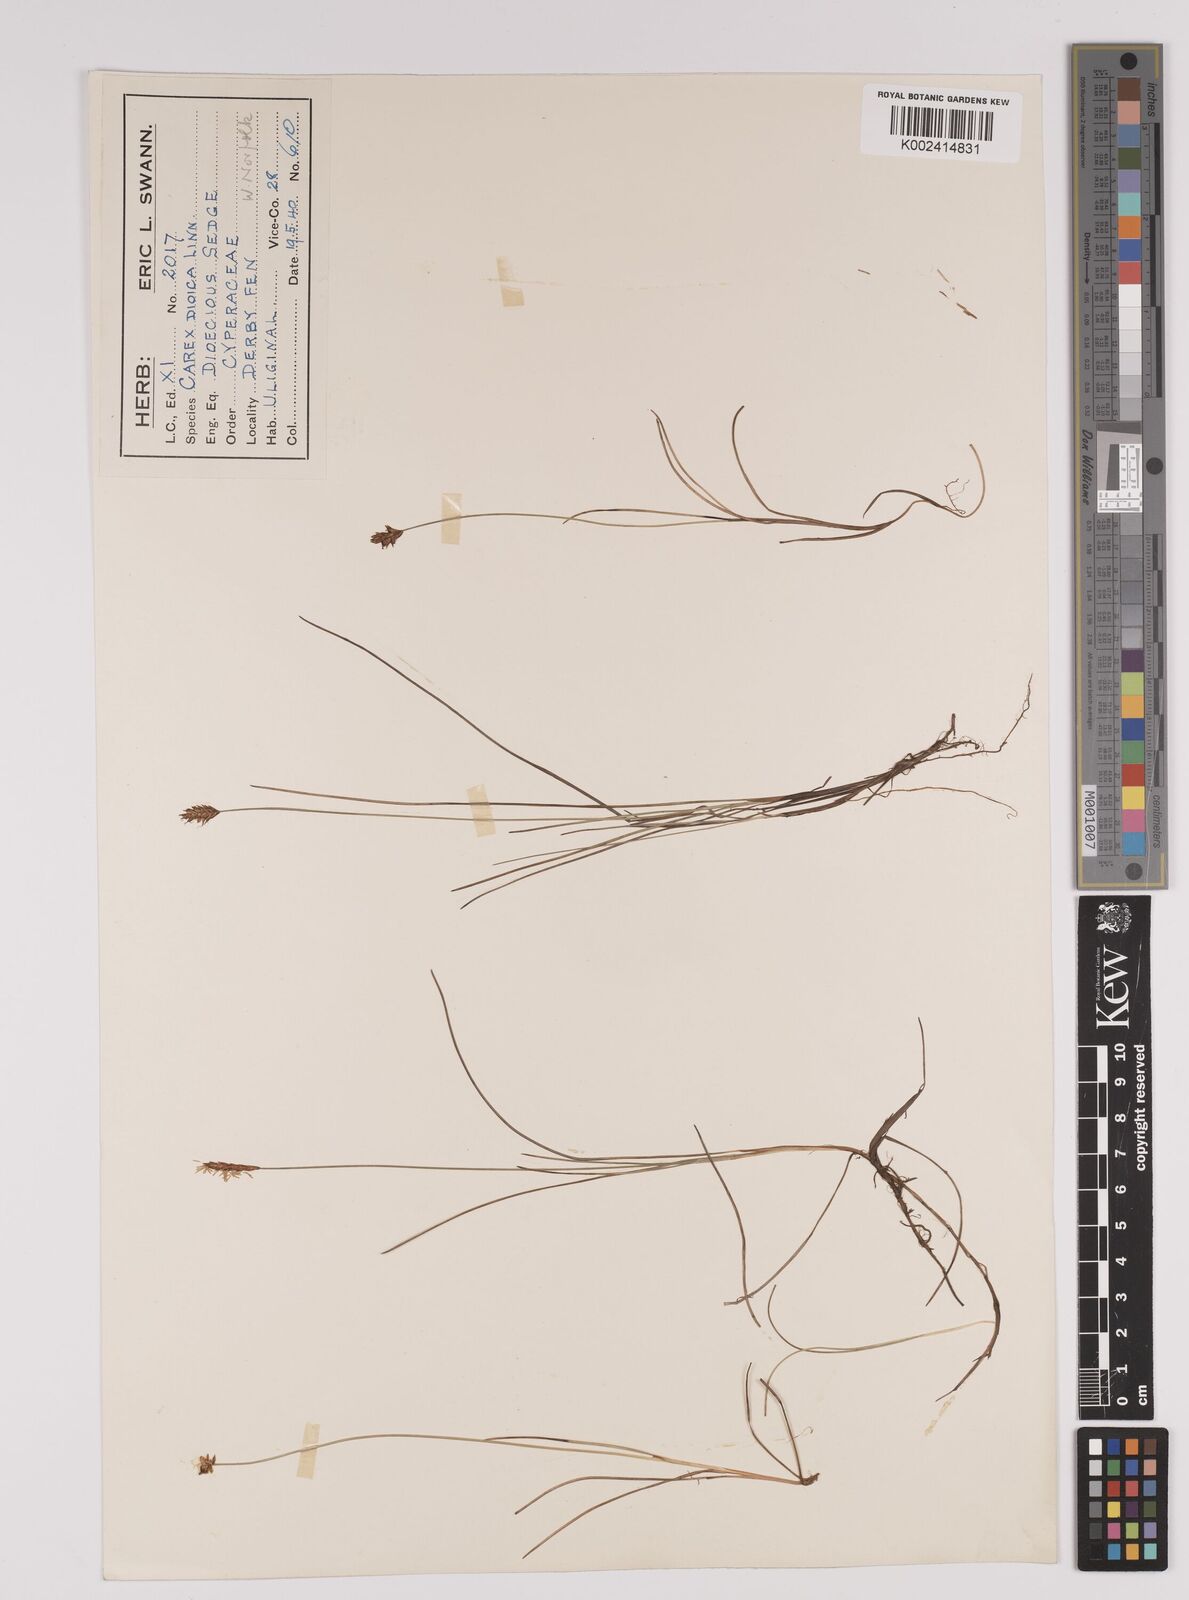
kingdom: Plantae
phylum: Tracheophyta
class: Liliopsida
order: Poales
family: Cyperaceae
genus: Carex
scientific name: Carex dioica
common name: Dioecious sedge
